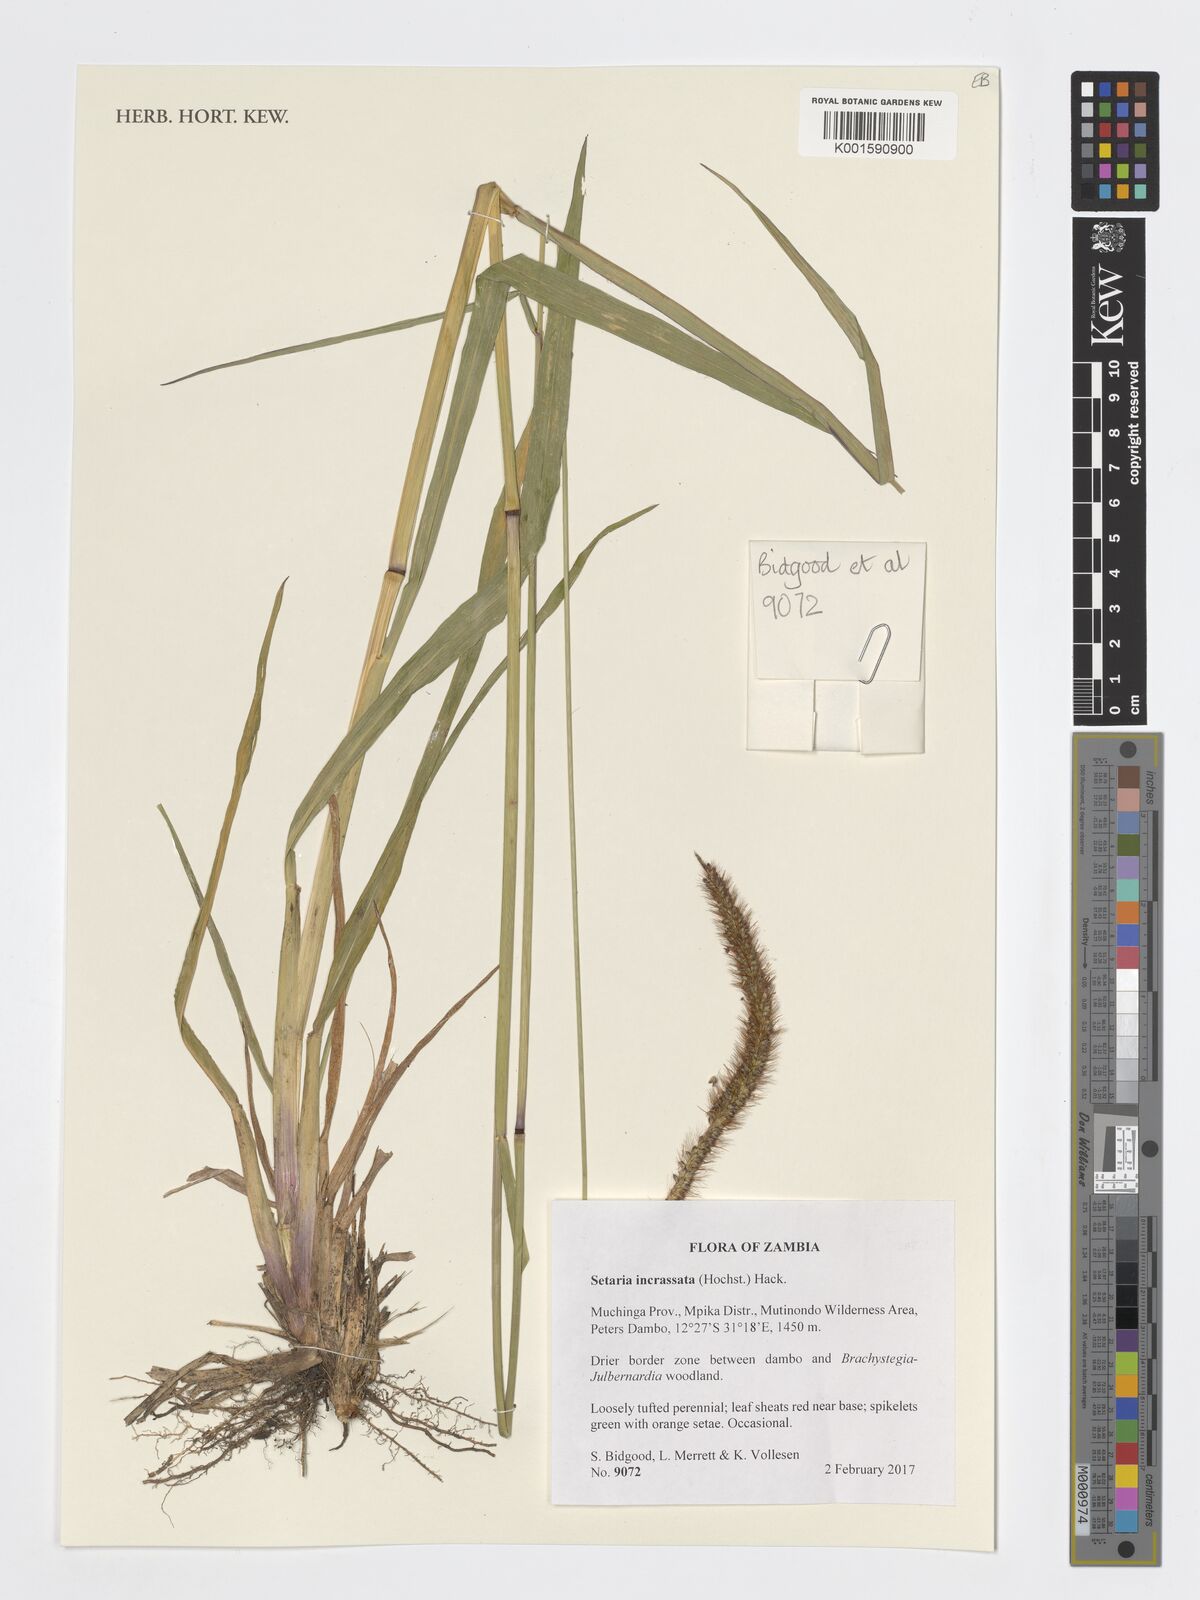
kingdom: Plantae
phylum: Tracheophyta
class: Liliopsida
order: Poales
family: Poaceae
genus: Setaria
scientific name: Setaria incrassata
